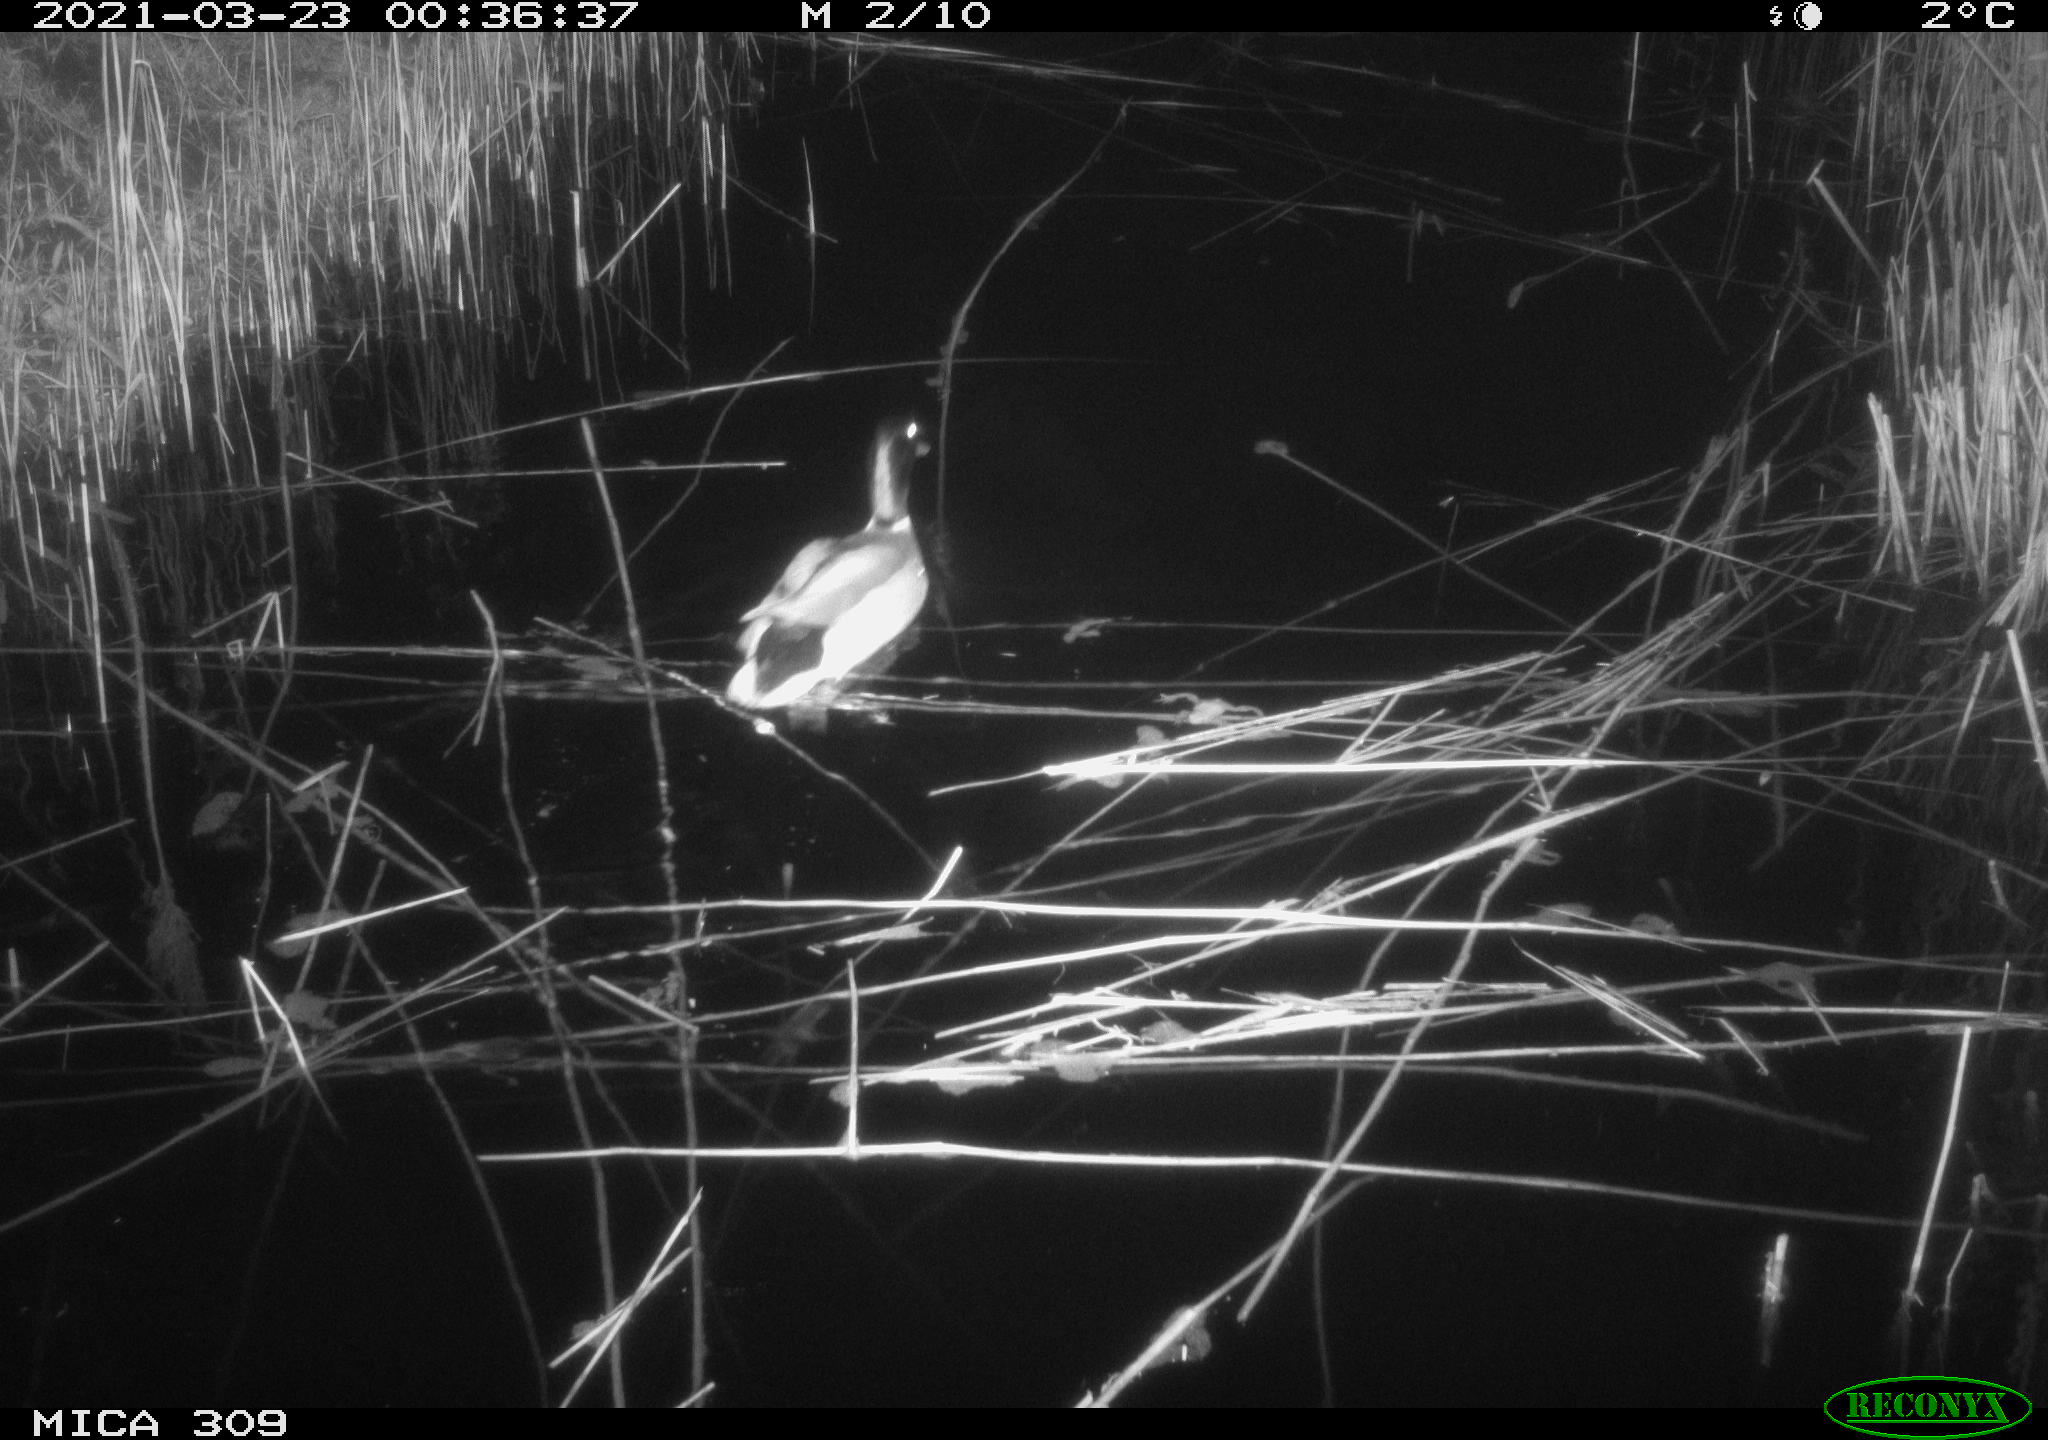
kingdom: Animalia
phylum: Chordata
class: Aves
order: Anseriformes
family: Anatidae
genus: Anas
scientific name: Anas platyrhynchos
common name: Mallard
